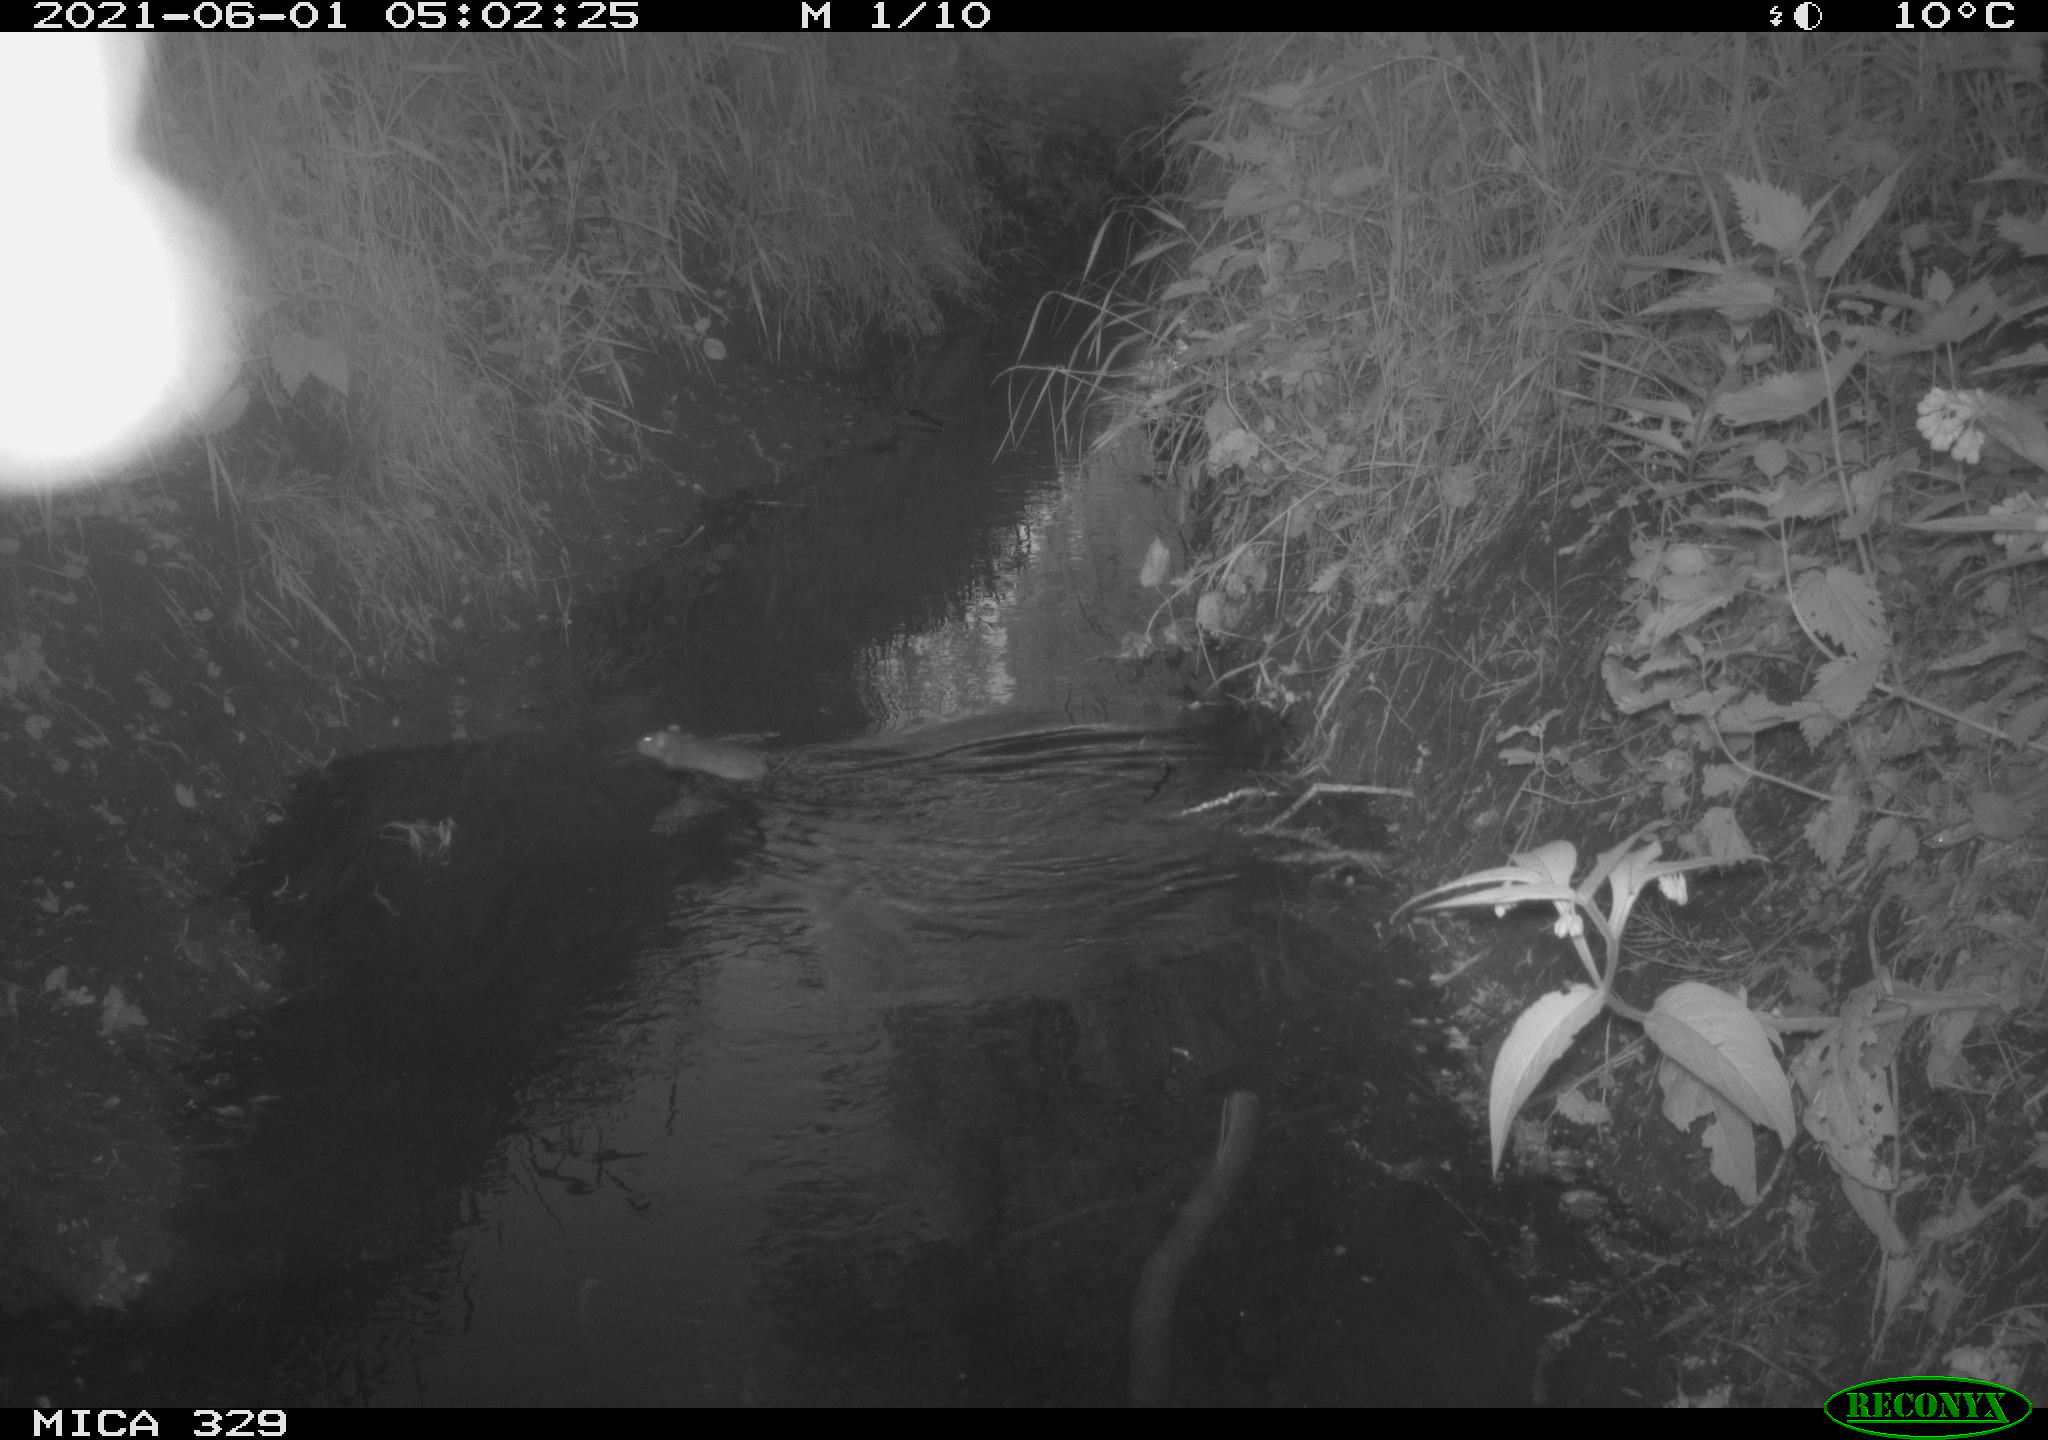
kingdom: Animalia
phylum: Chordata
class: Mammalia
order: Rodentia
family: Muridae
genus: Rattus
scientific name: Rattus norvegicus
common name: Brown rat
